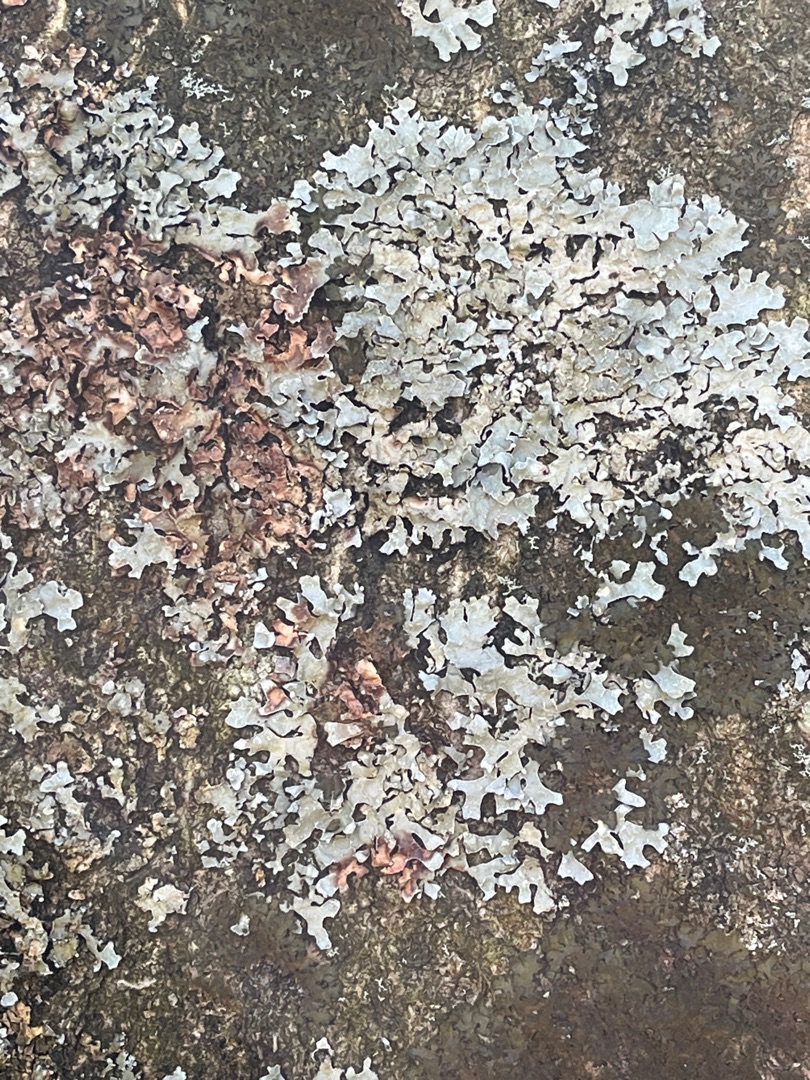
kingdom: Fungi
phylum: Ascomycota
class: Lecanoromycetes
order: Lecanorales
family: Parmeliaceae
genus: Parmelia
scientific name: Parmelia sulcata
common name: Rynket skållav
